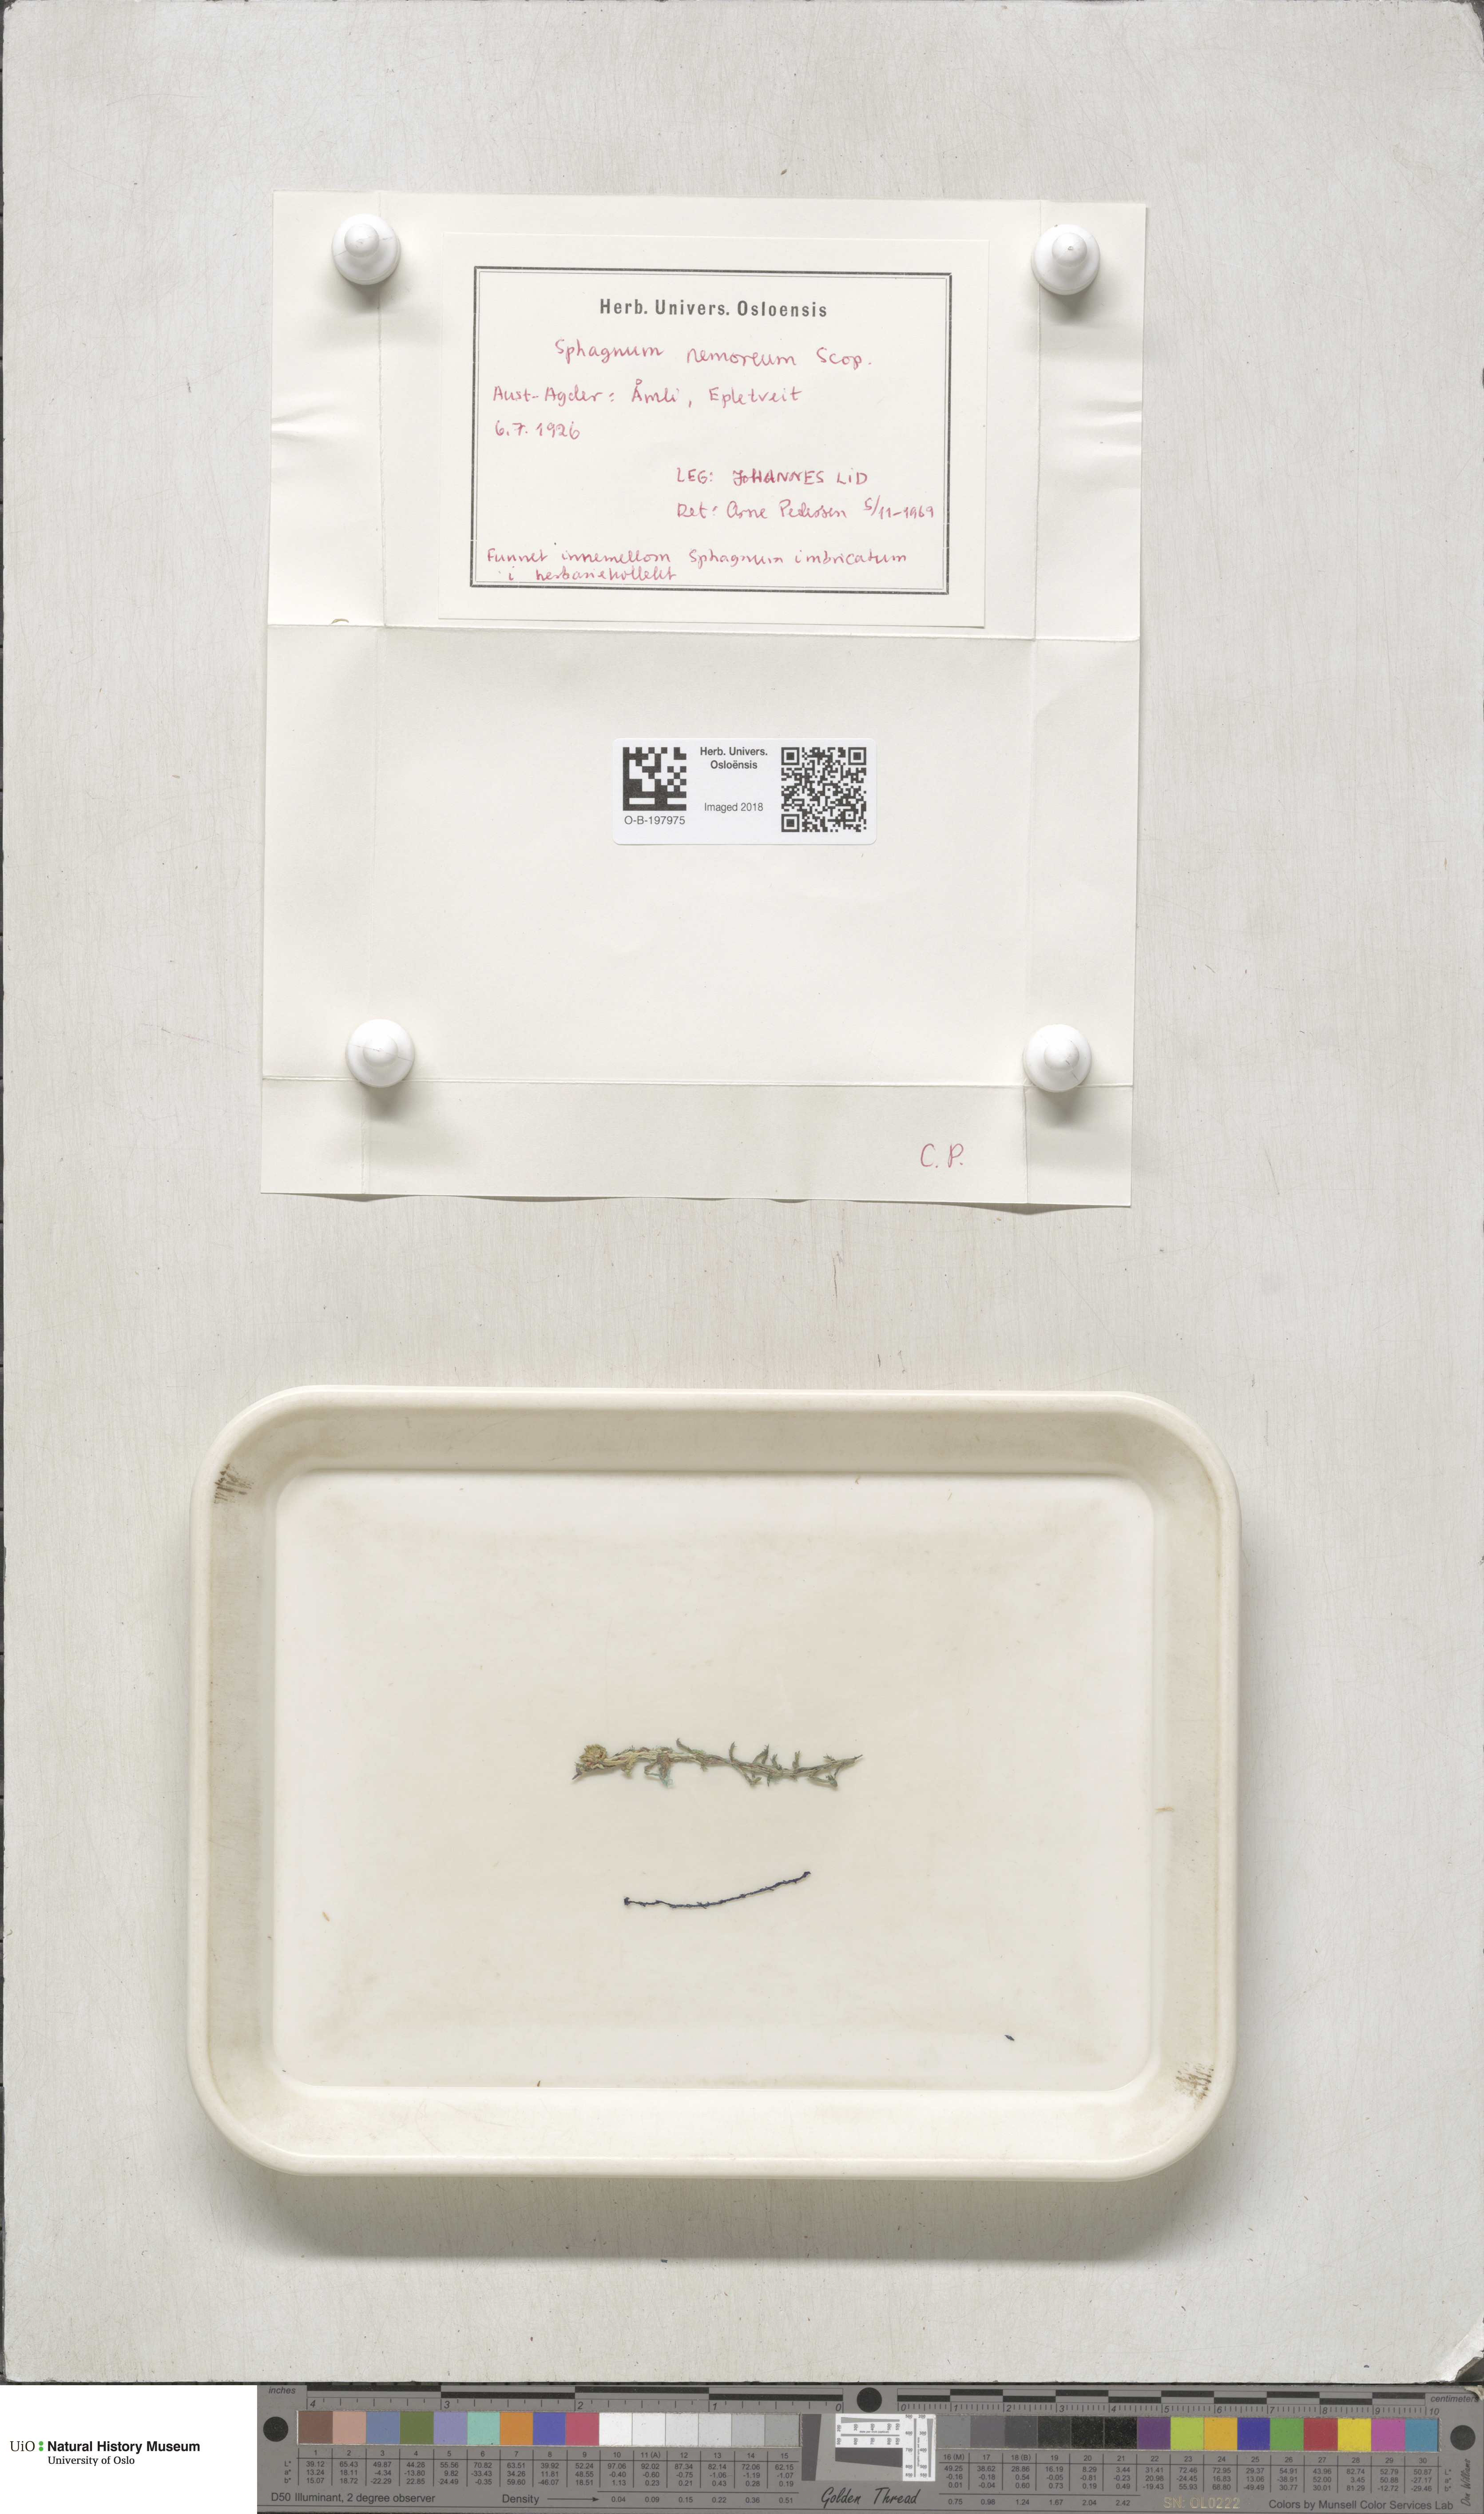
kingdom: Plantae
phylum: Bryophyta
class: Sphagnopsida
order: Sphagnales
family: Sphagnaceae
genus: Sphagnum
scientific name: Sphagnum capillifolium
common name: Small red peat moss
